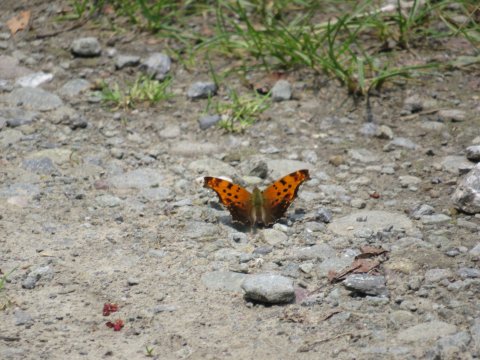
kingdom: Animalia
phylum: Arthropoda
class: Insecta
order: Lepidoptera
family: Nymphalidae
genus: Polygonia
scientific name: Polygonia comma
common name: Eastern Comma
